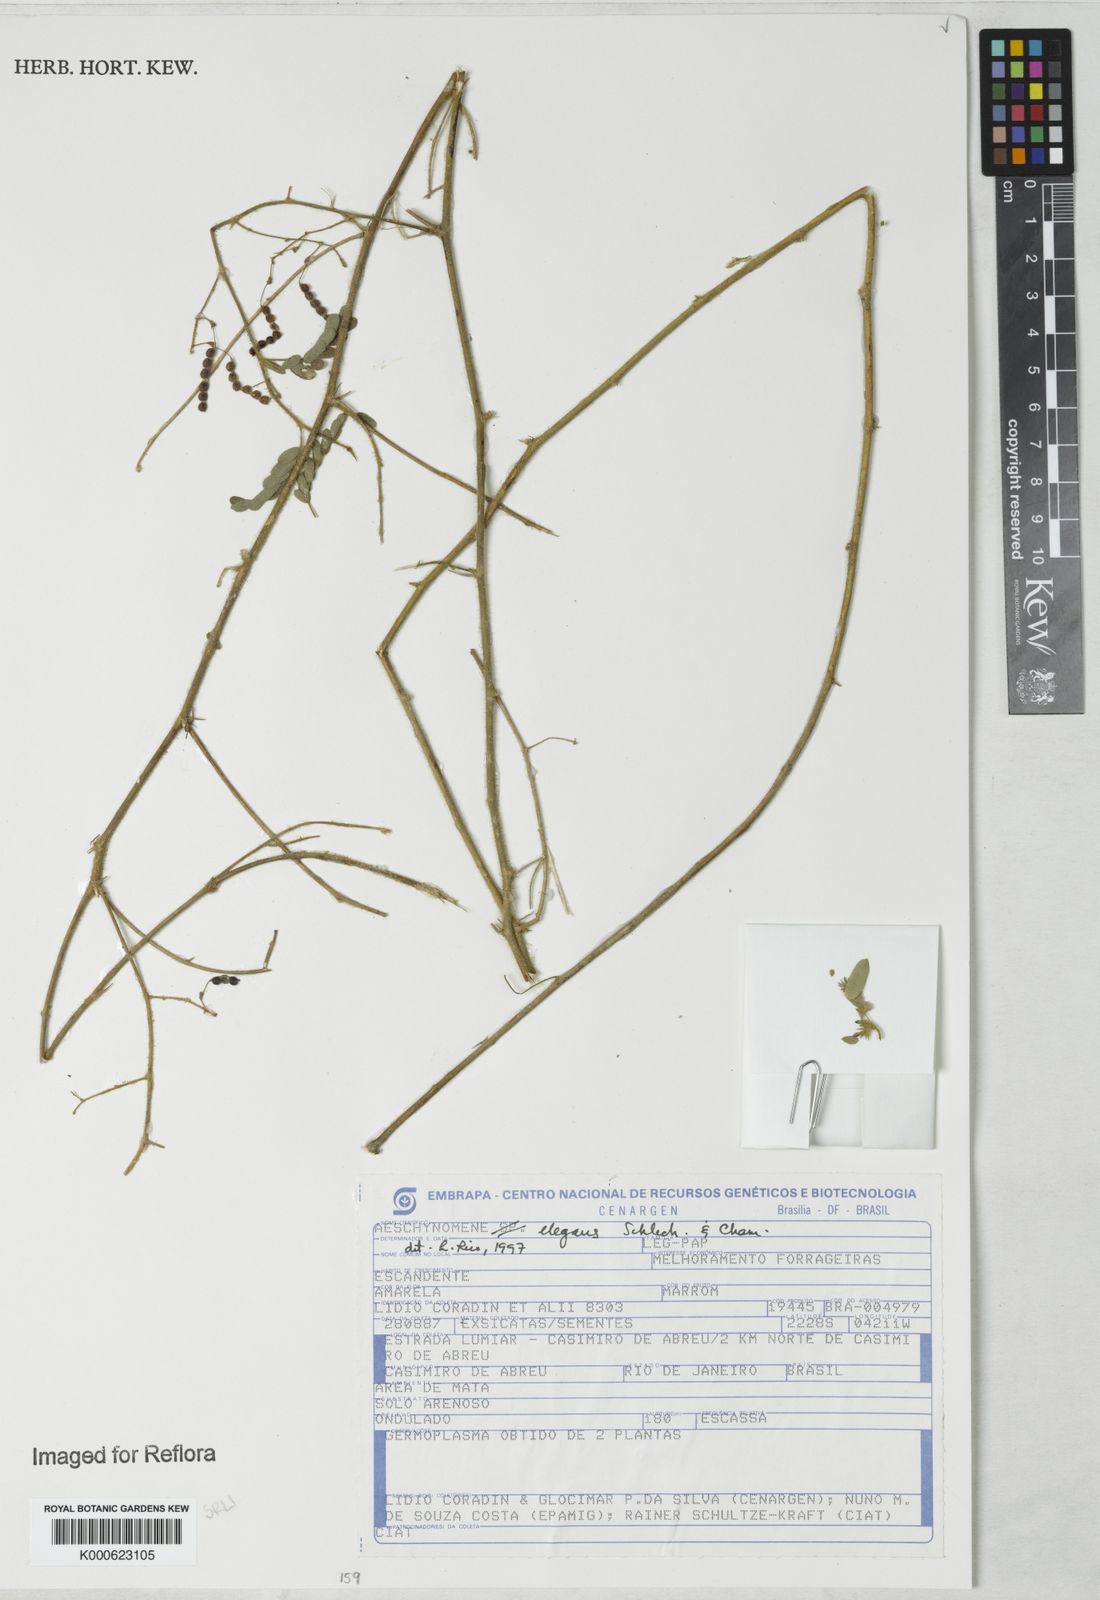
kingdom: Plantae
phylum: Tracheophyta
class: Magnoliopsida
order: Fabales
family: Fabaceae
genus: Ctenodon
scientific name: Ctenodon elegans
